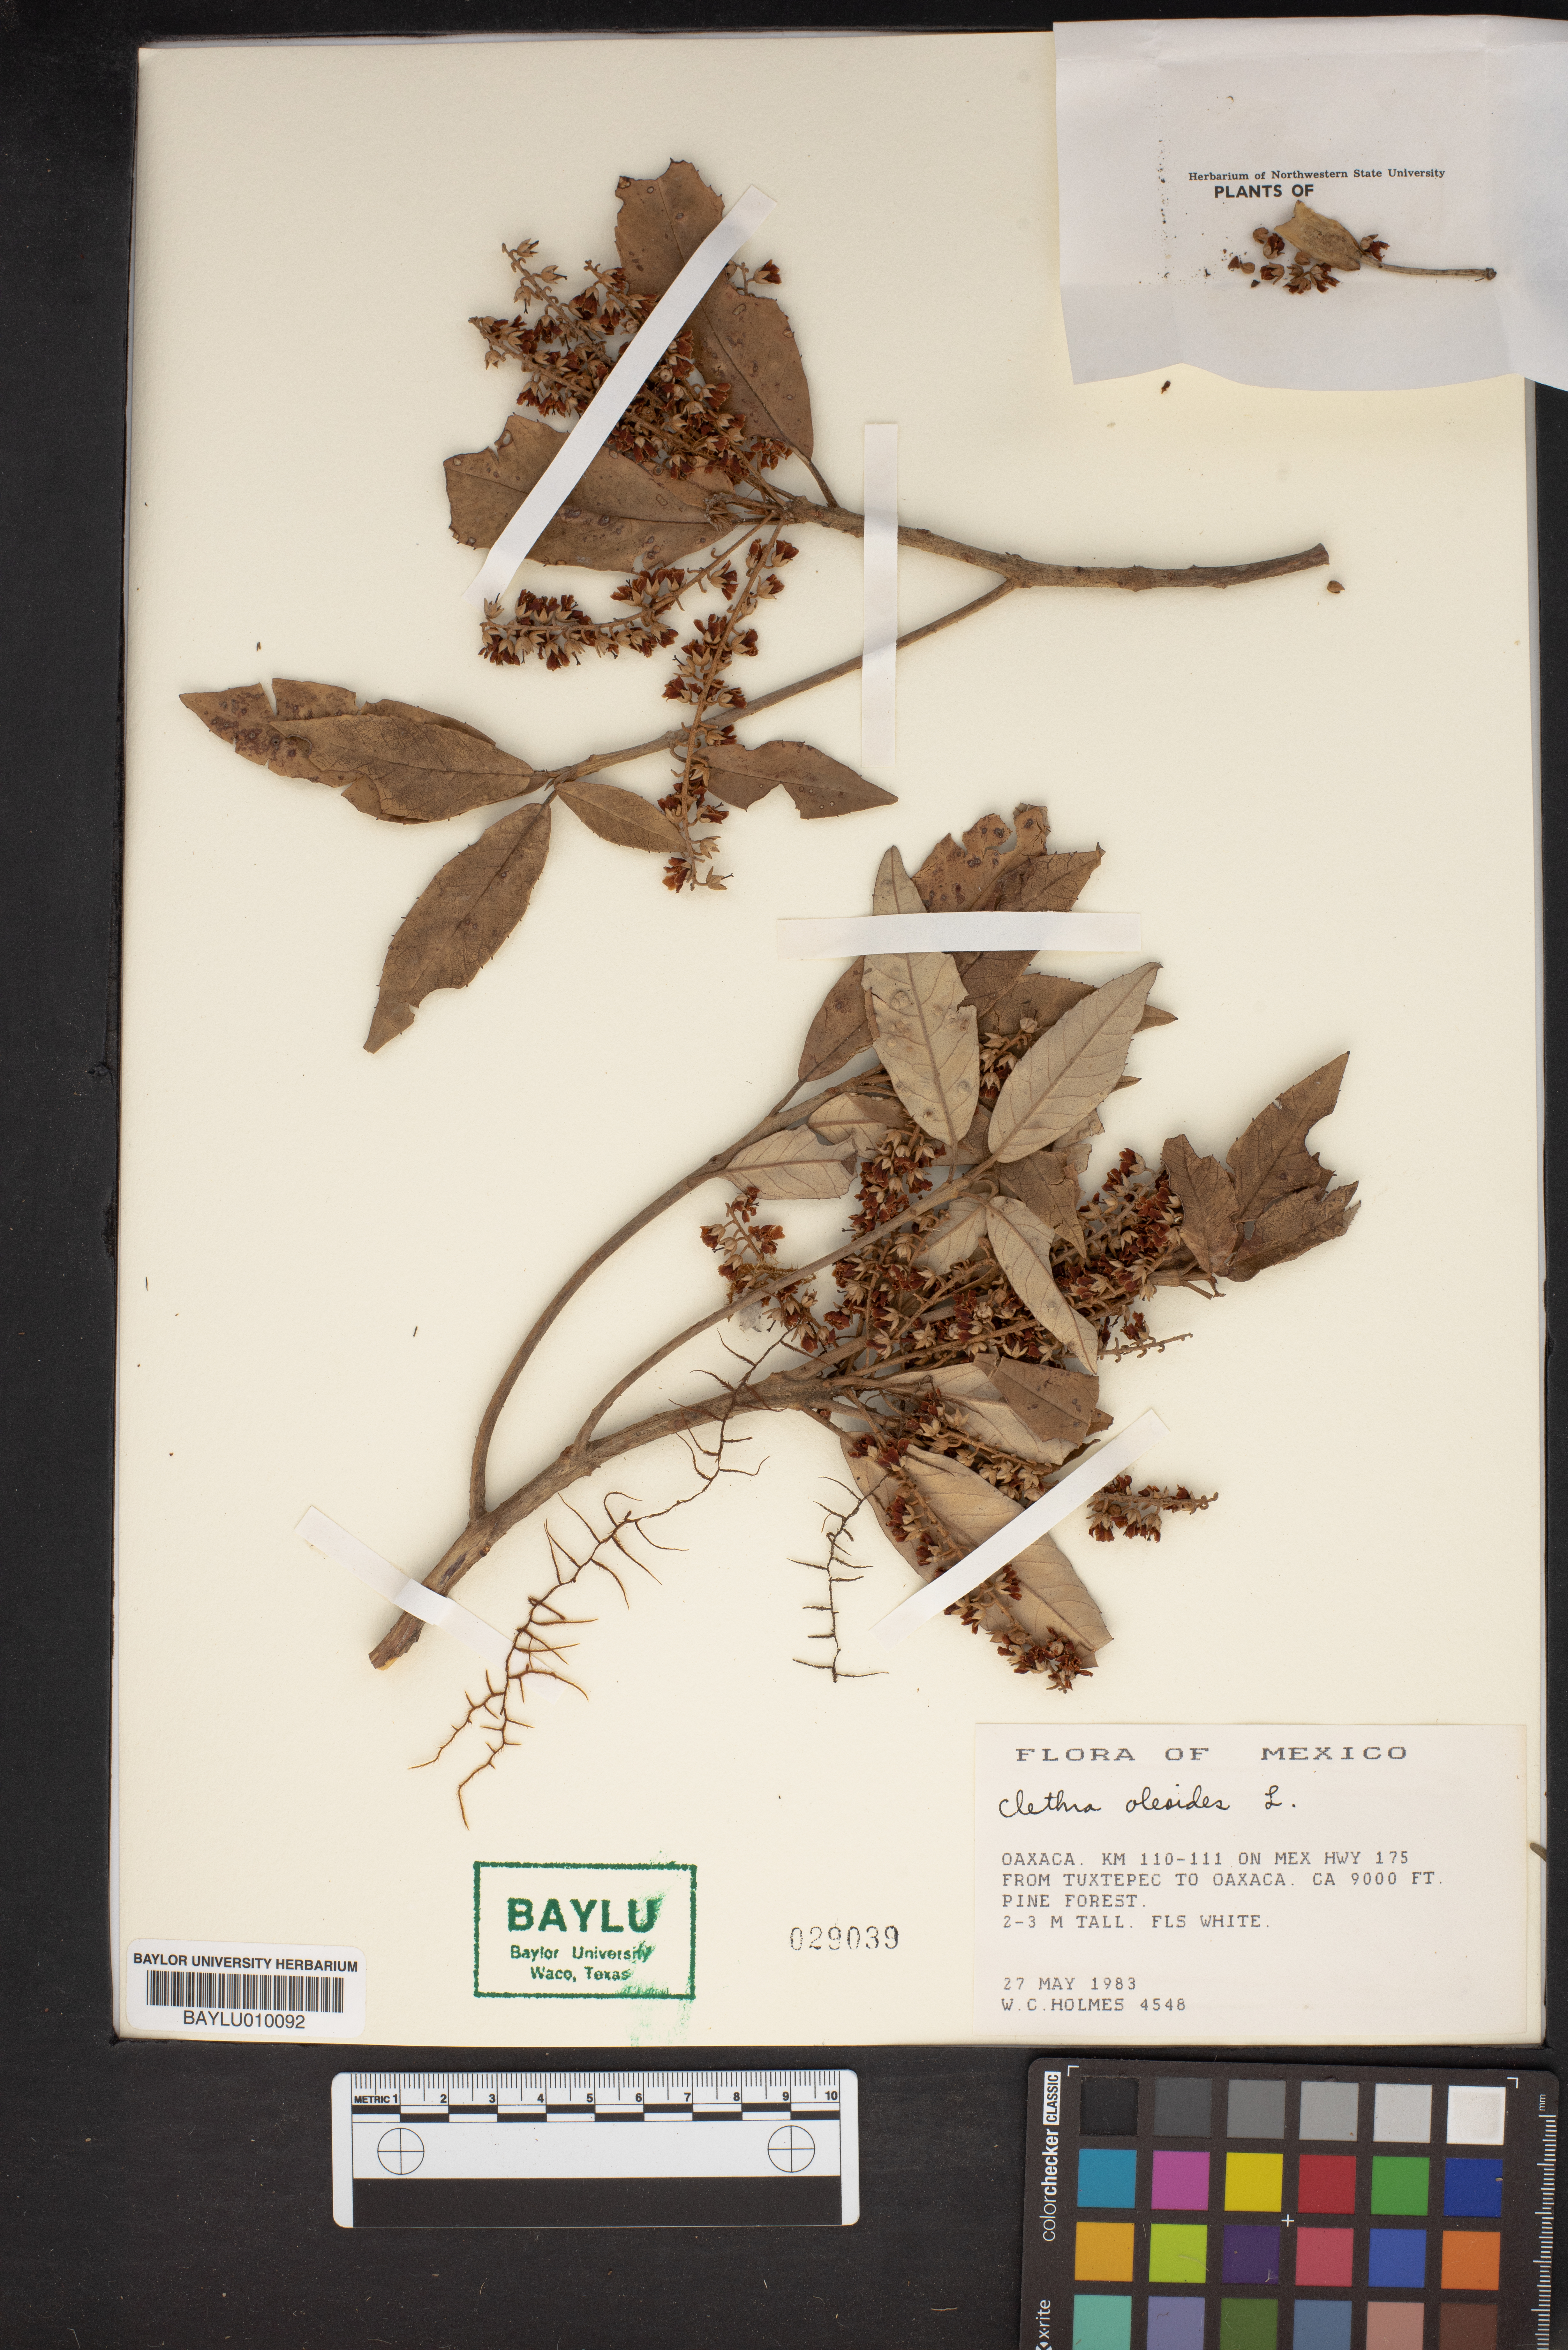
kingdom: Plantae
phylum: Tracheophyta
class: Magnoliopsida
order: Ericales
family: Clethraceae
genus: Clethra
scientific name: Clethra oleoides
